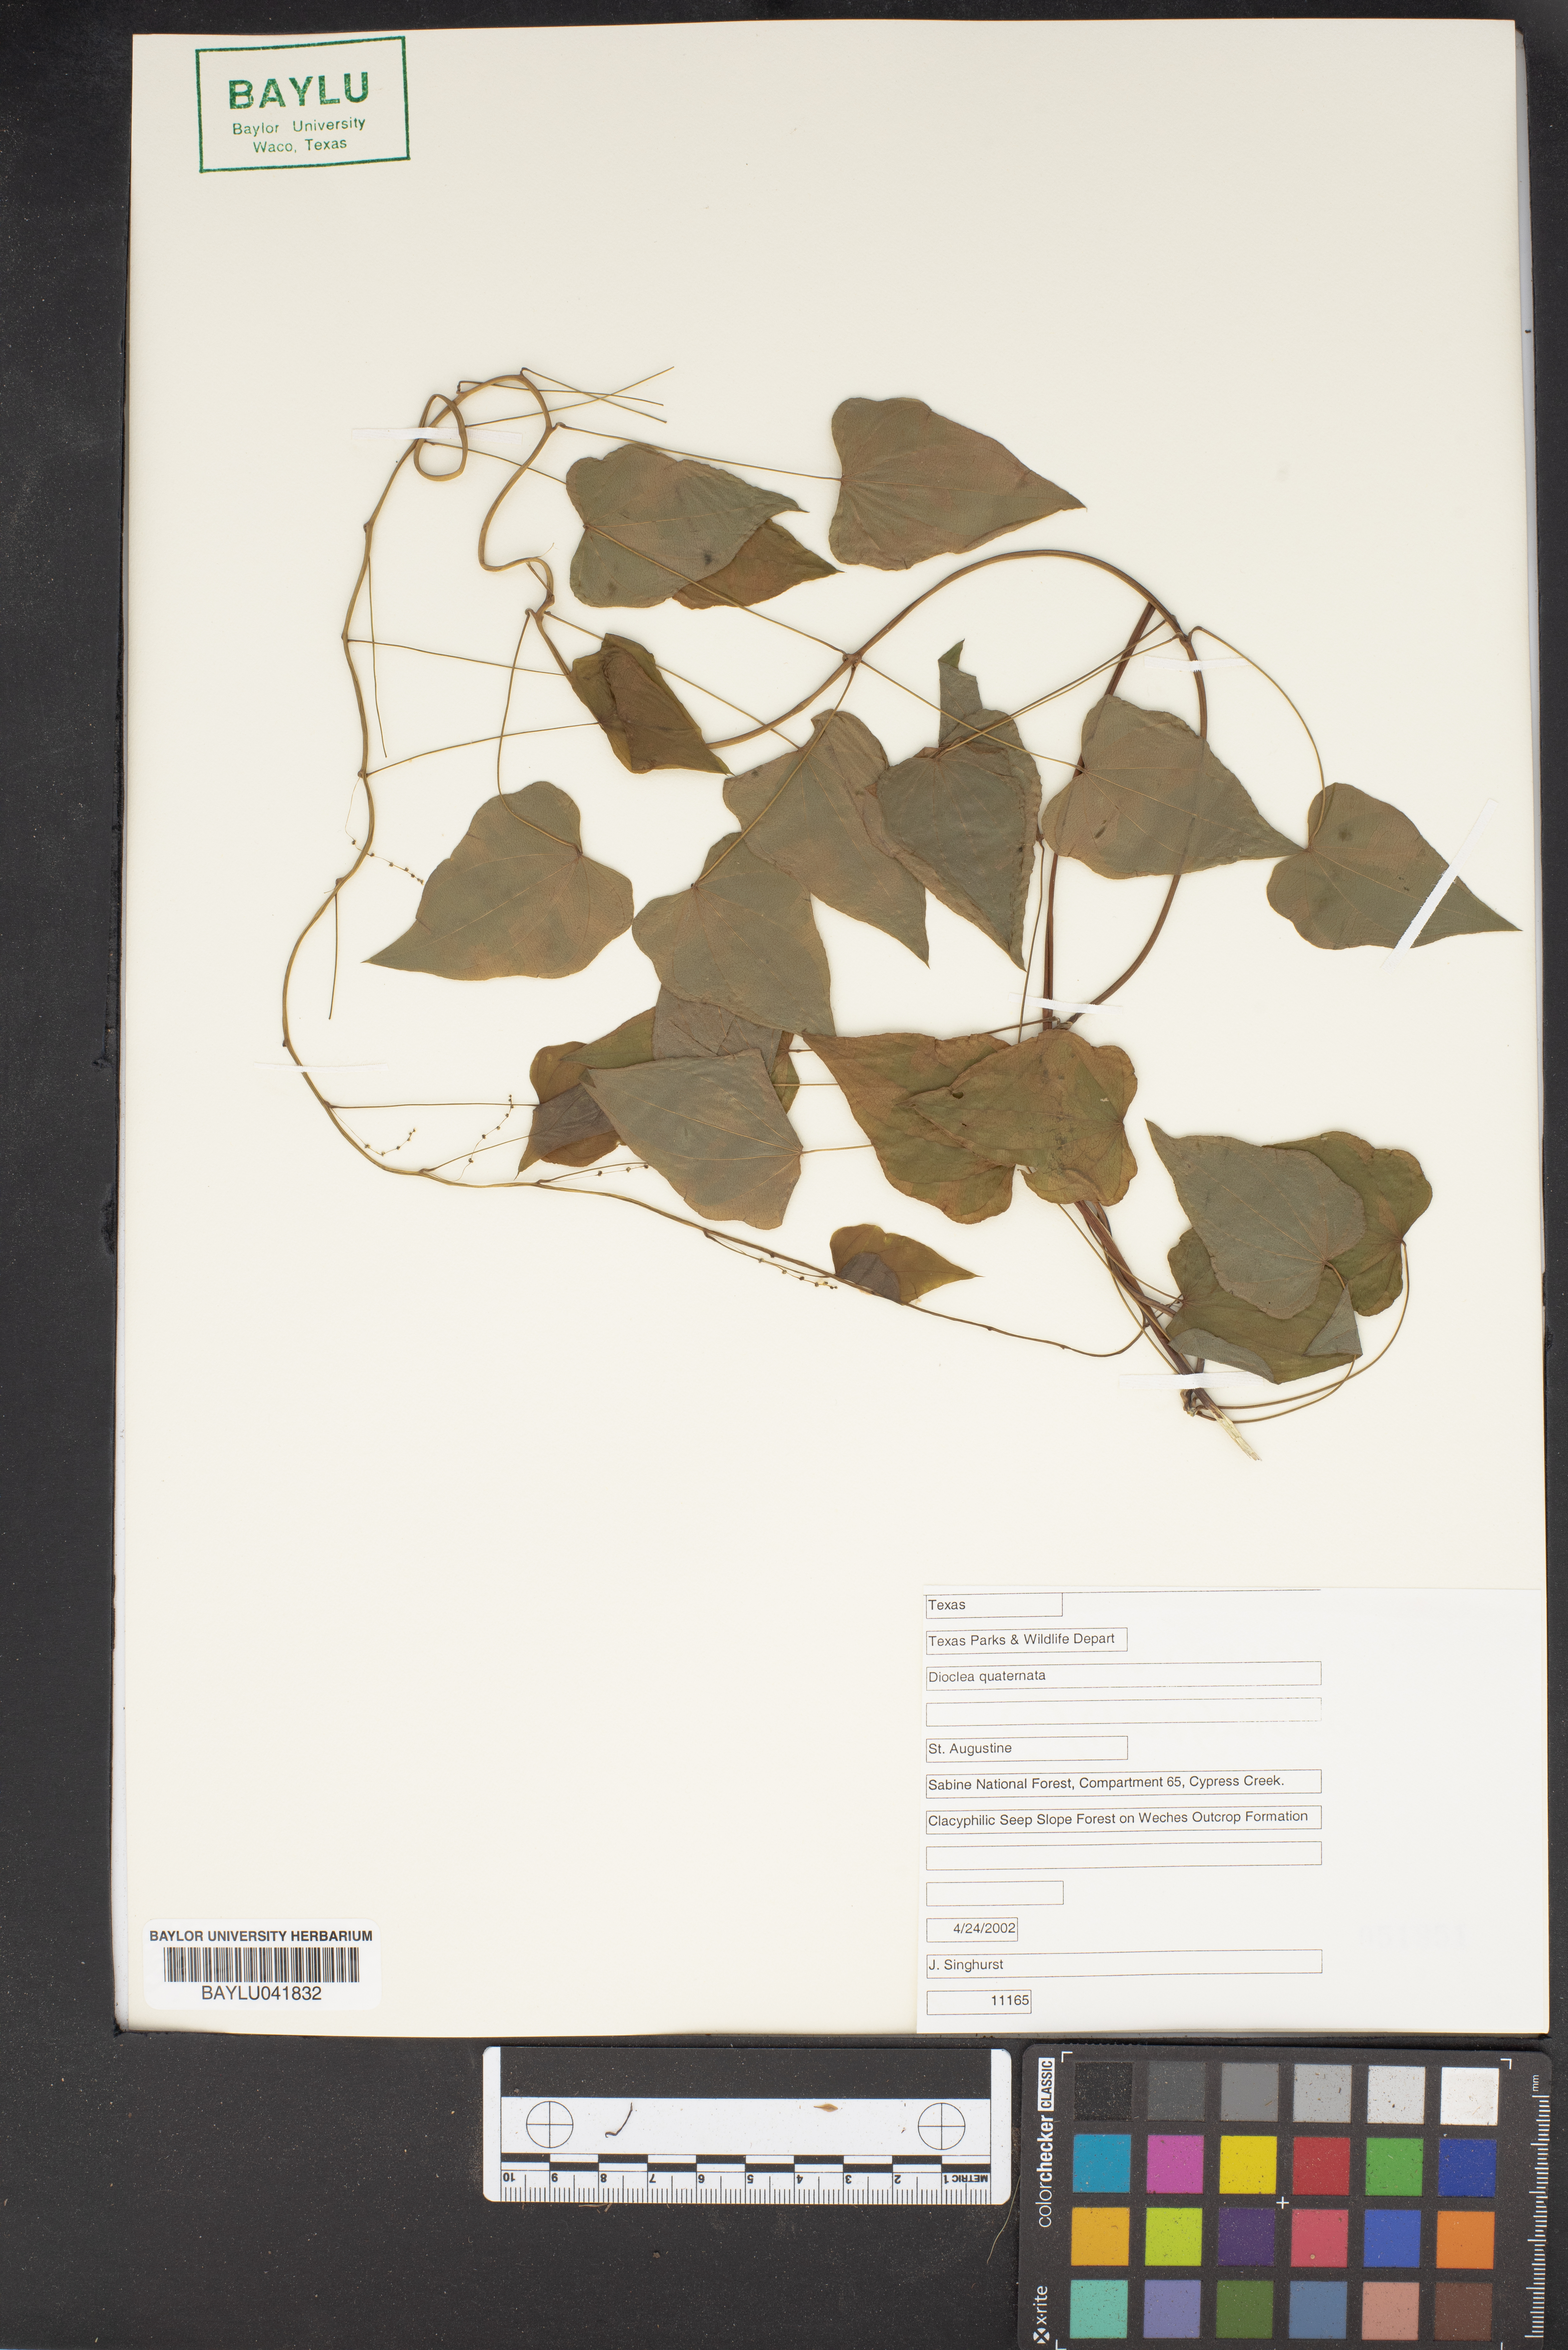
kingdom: Plantae
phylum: Tracheophyta
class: Magnoliopsida
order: Fabales
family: Fabaceae
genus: Dioclea
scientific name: Dioclea
